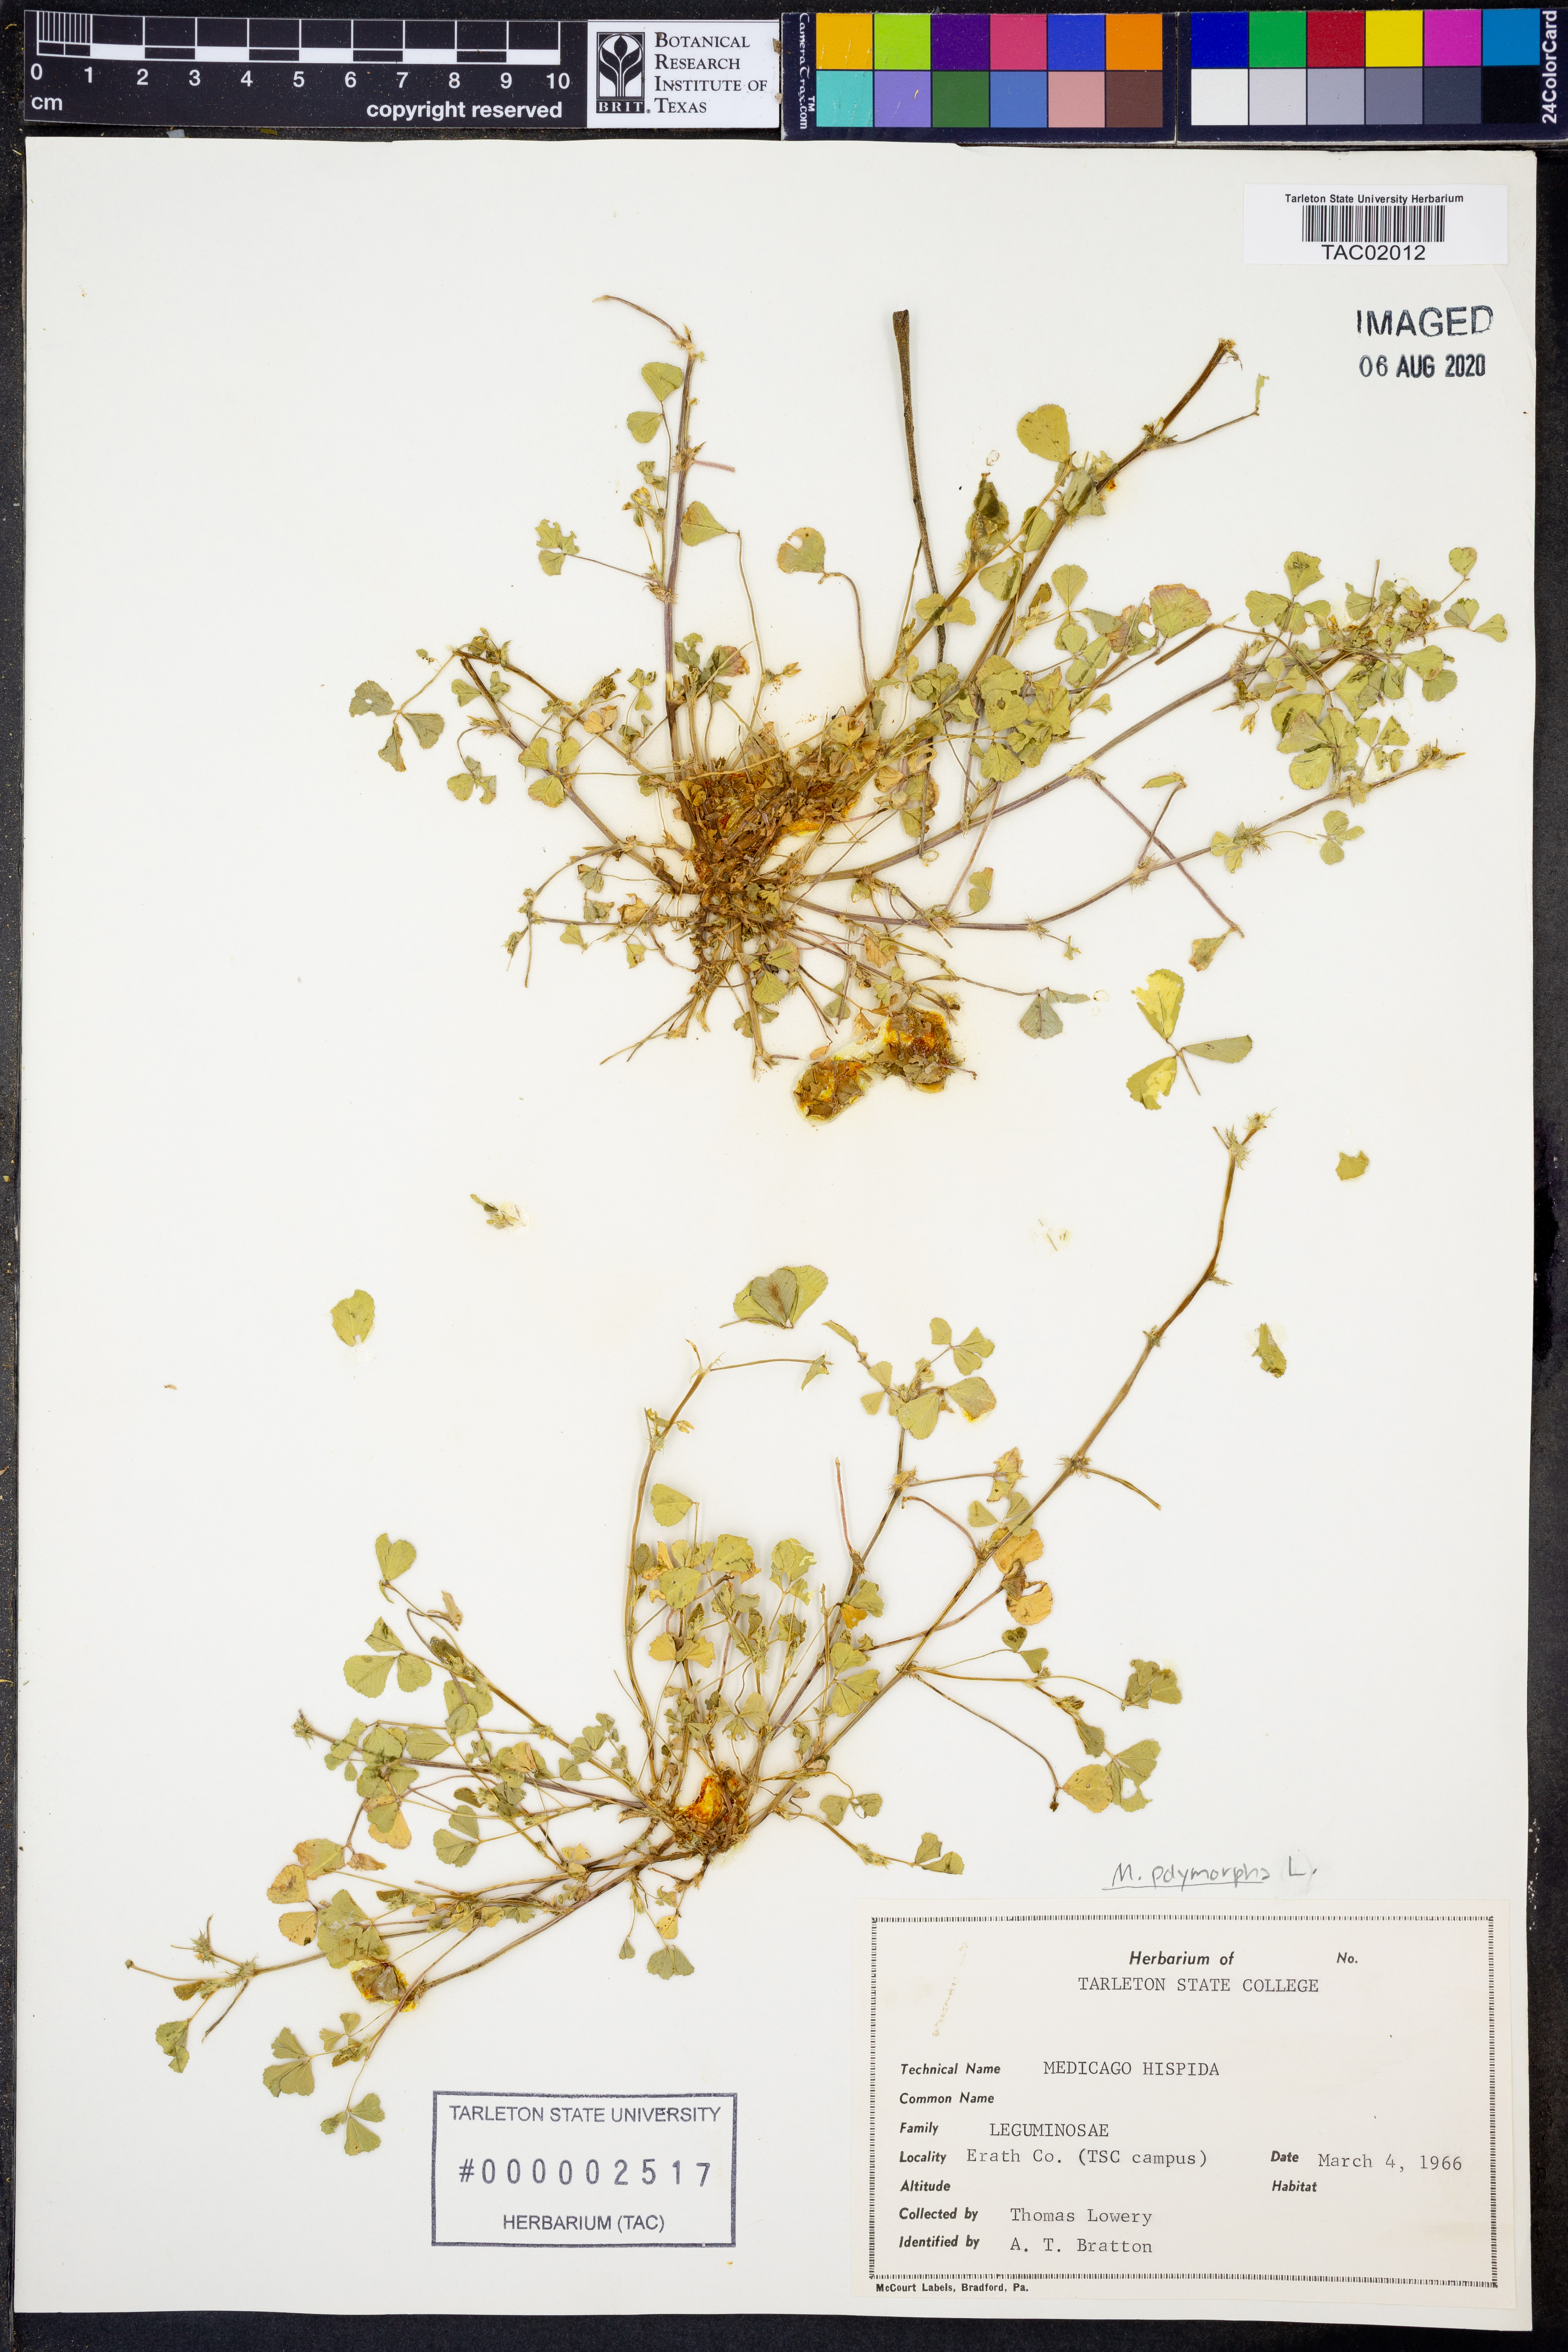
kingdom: Plantae
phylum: Tracheophyta
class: Magnoliopsida
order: Fabales
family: Fabaceae
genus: Medicago
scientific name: Medicago polymorpha
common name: Burclover
